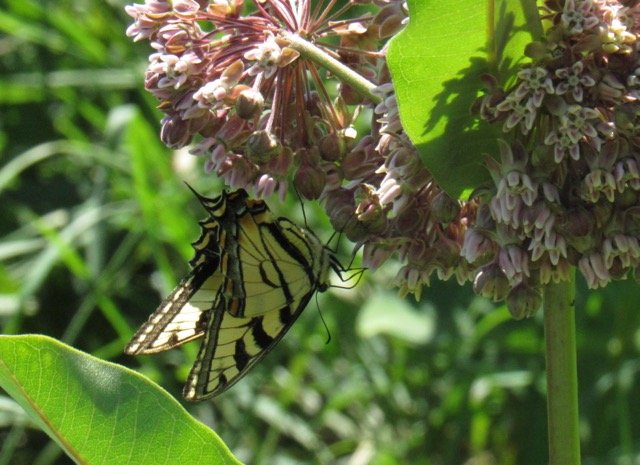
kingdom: Animalia
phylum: Arthropoda
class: Insecta
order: Lepidoptera
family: Papilionidae
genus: Pterourus
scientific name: Pterourus
